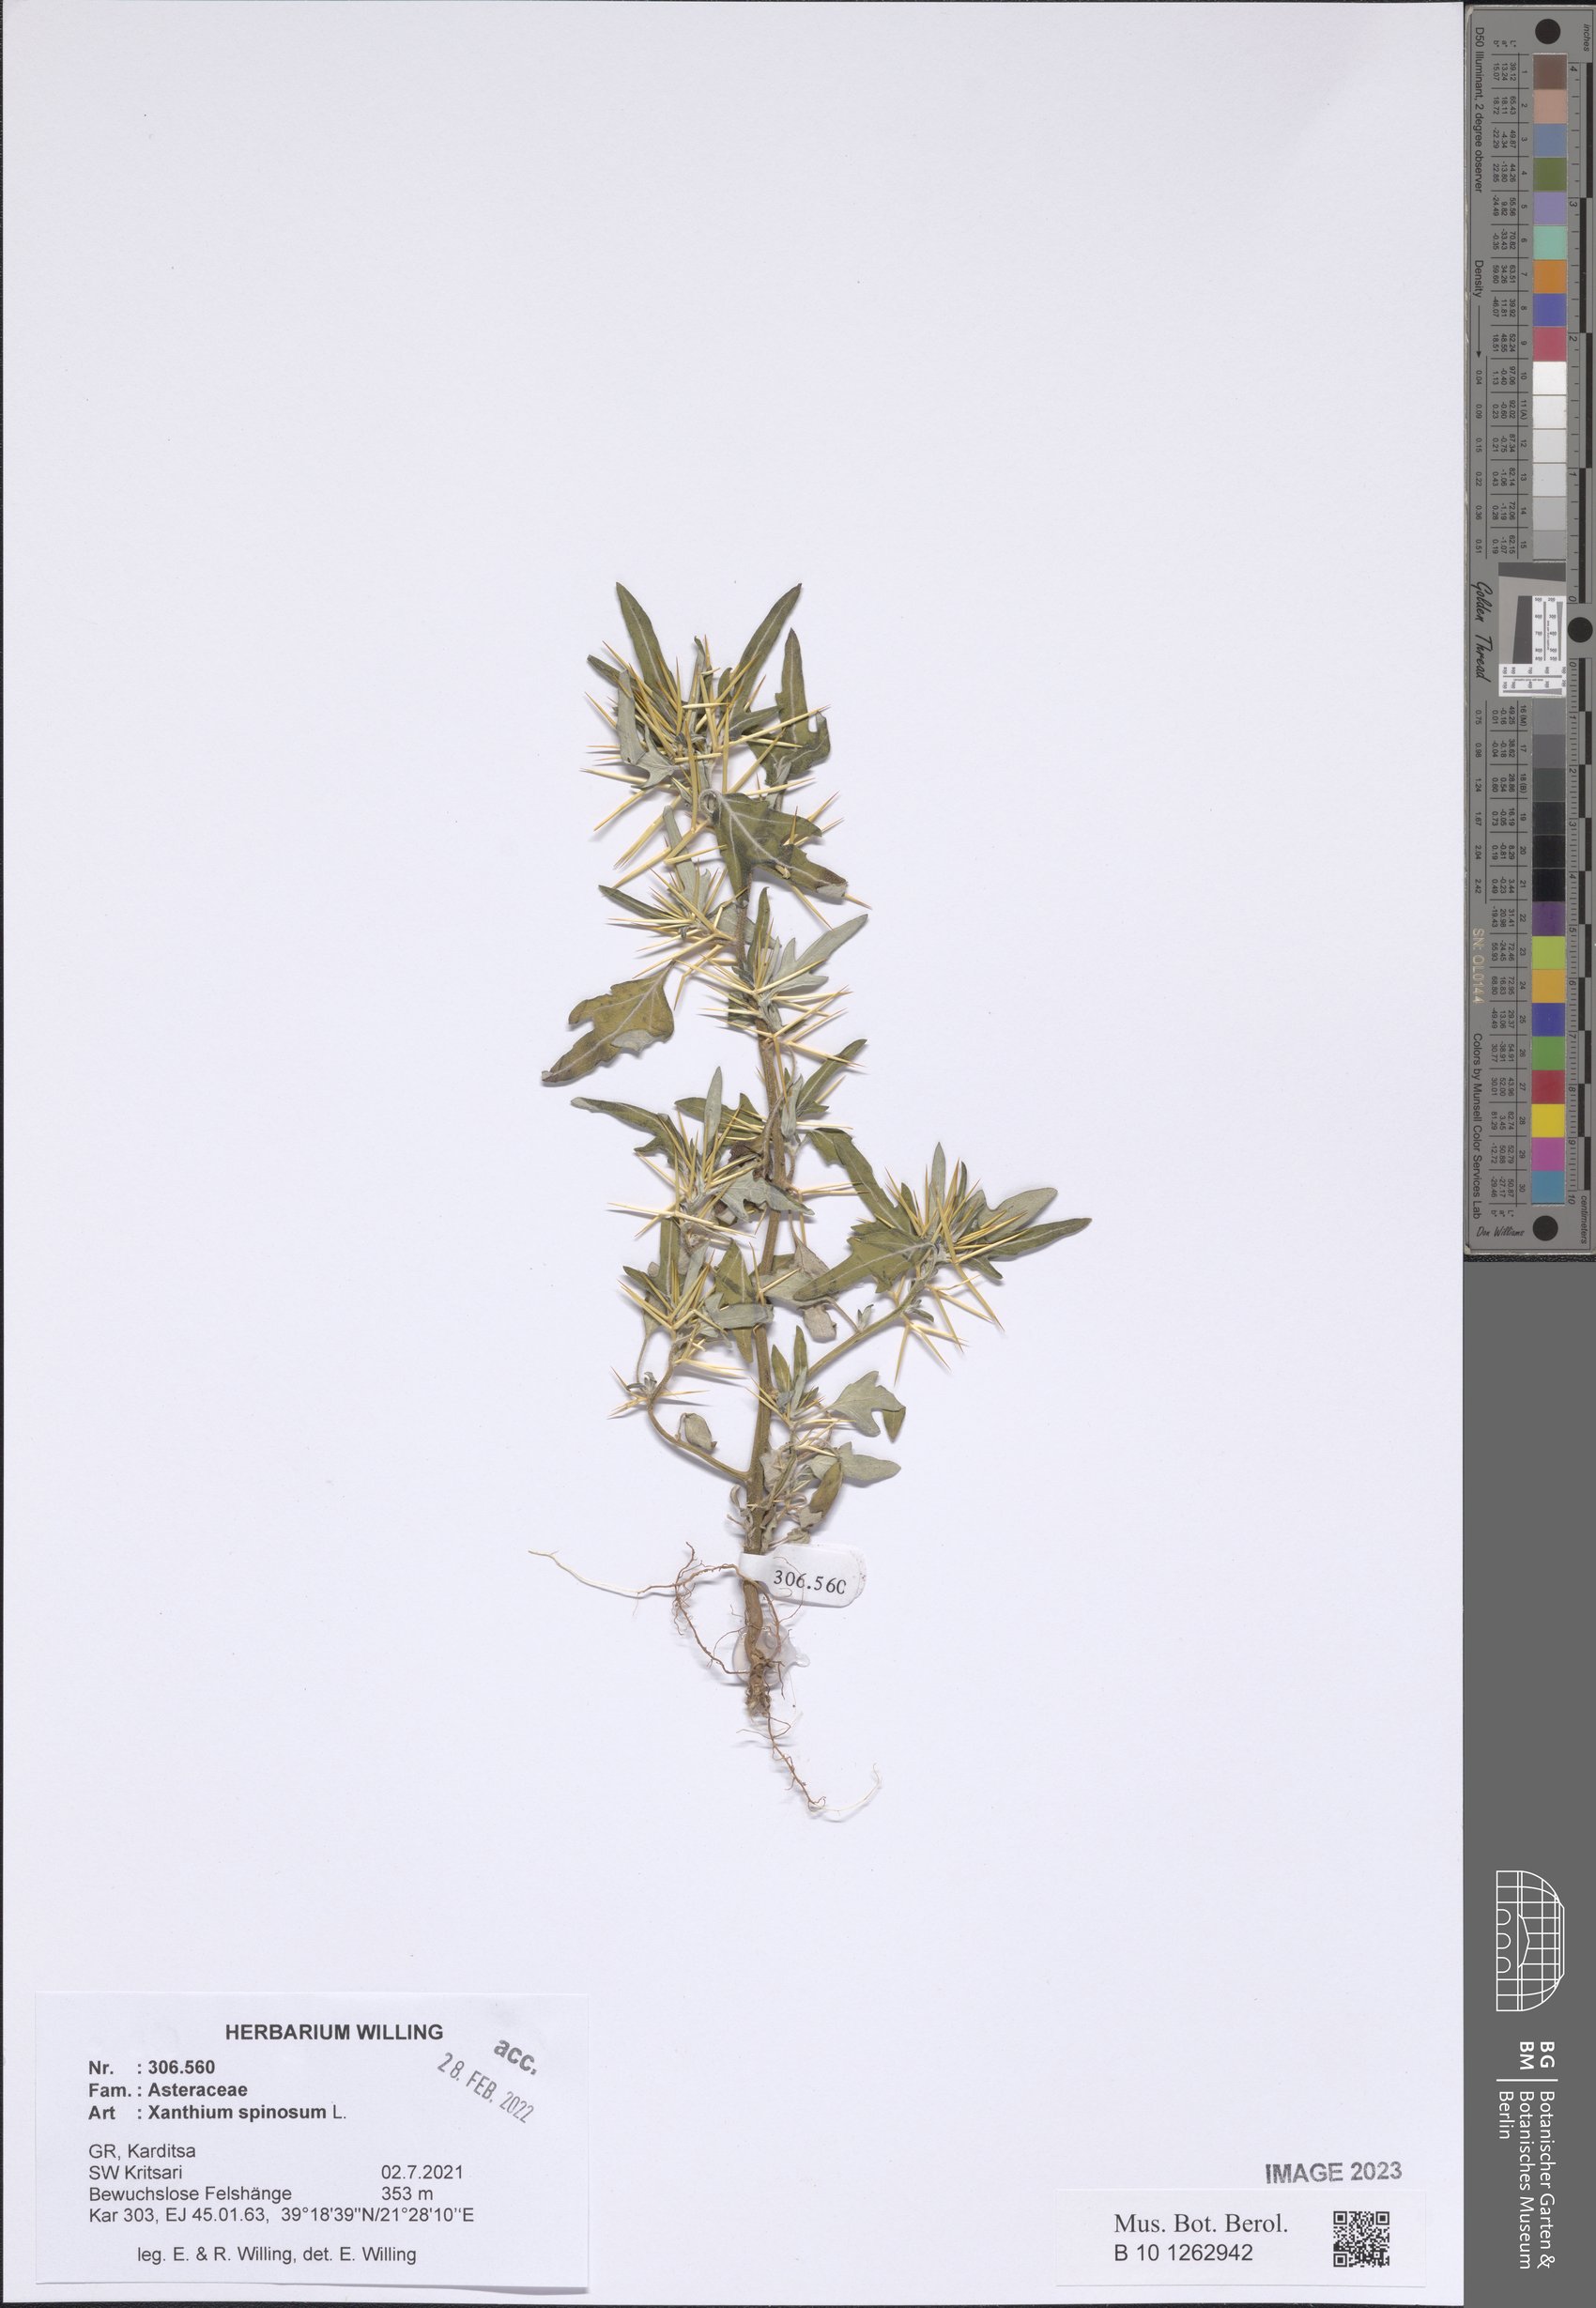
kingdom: Plantae
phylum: Tracheophyta
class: Magnoliopsida
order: Asterales
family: Asteraceae
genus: Xanthium
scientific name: Xanthium spinosum
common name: Spiny cocklebur
